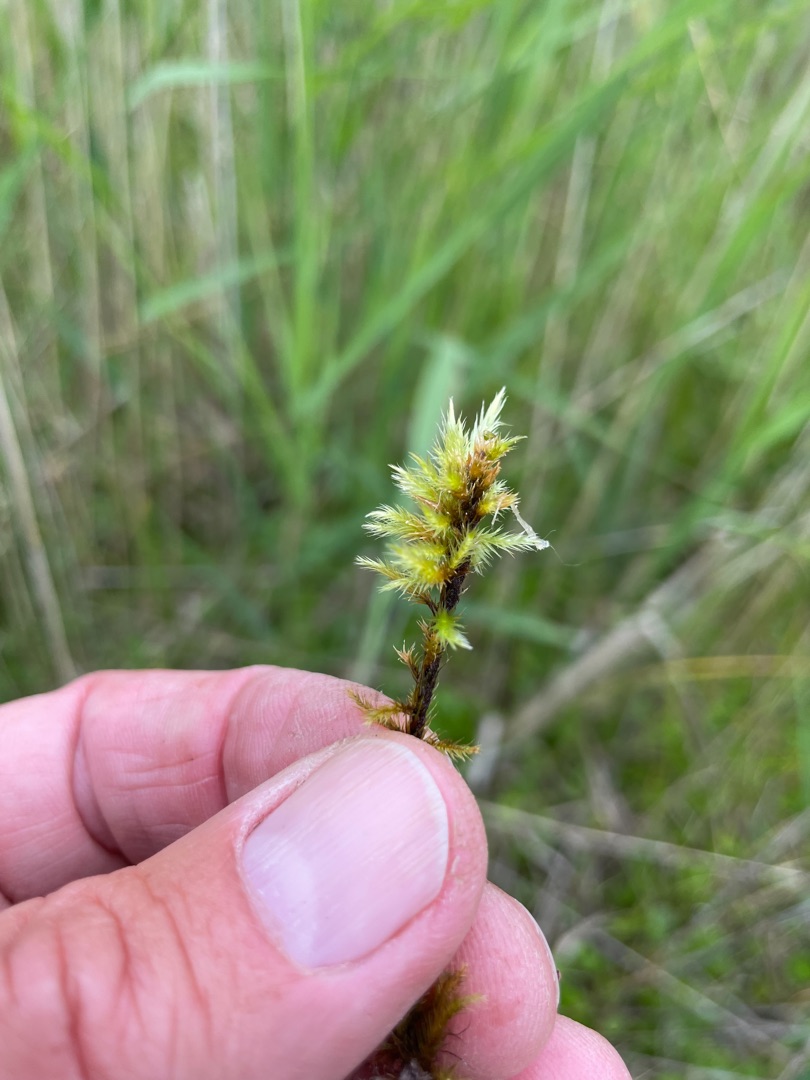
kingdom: Plantae
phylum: Bryophyta
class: Bryopsida
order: Hypnales
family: Amblystegiaceae
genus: Tomentypnum
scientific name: Tomentypnum nitens
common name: Glinsende kærmos
